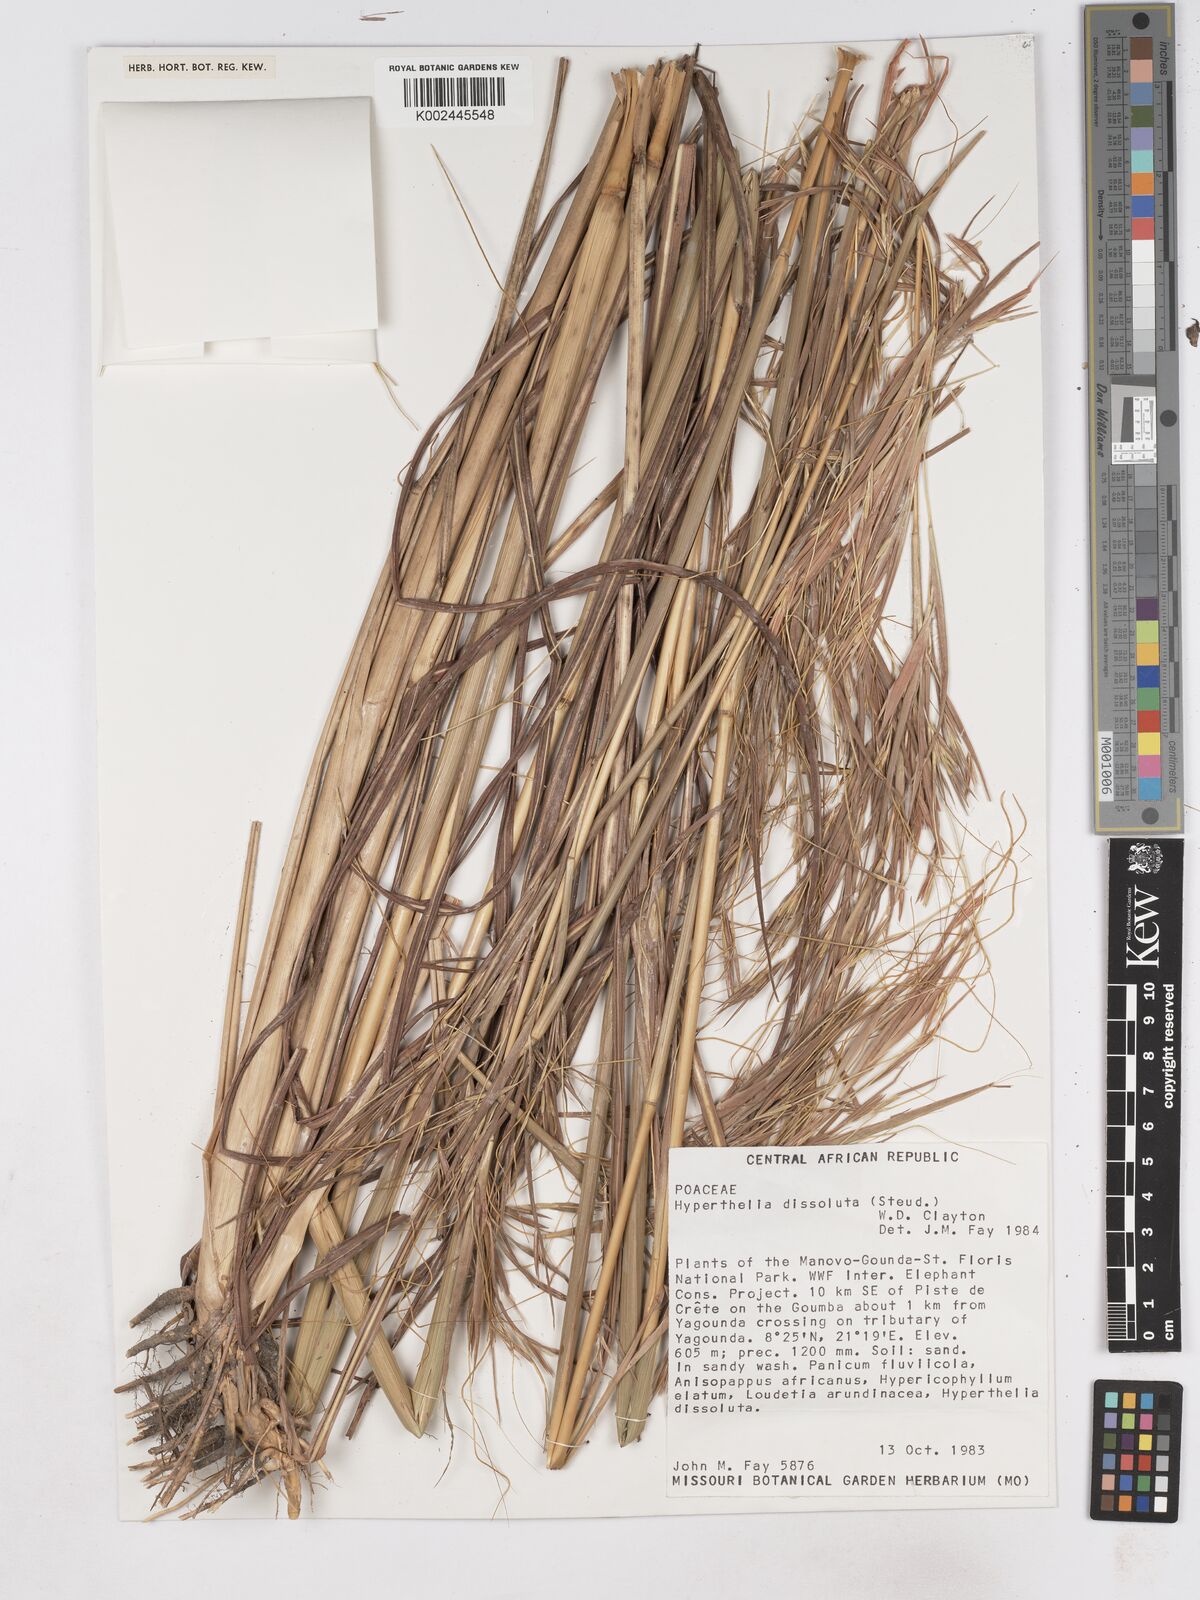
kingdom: Plantae
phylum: Tracheophyta
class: Liliopsida
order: Poales
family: Poaceae
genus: Hyperthelia
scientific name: Hyperthelia dissoluta
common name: Yellow thatching grass
